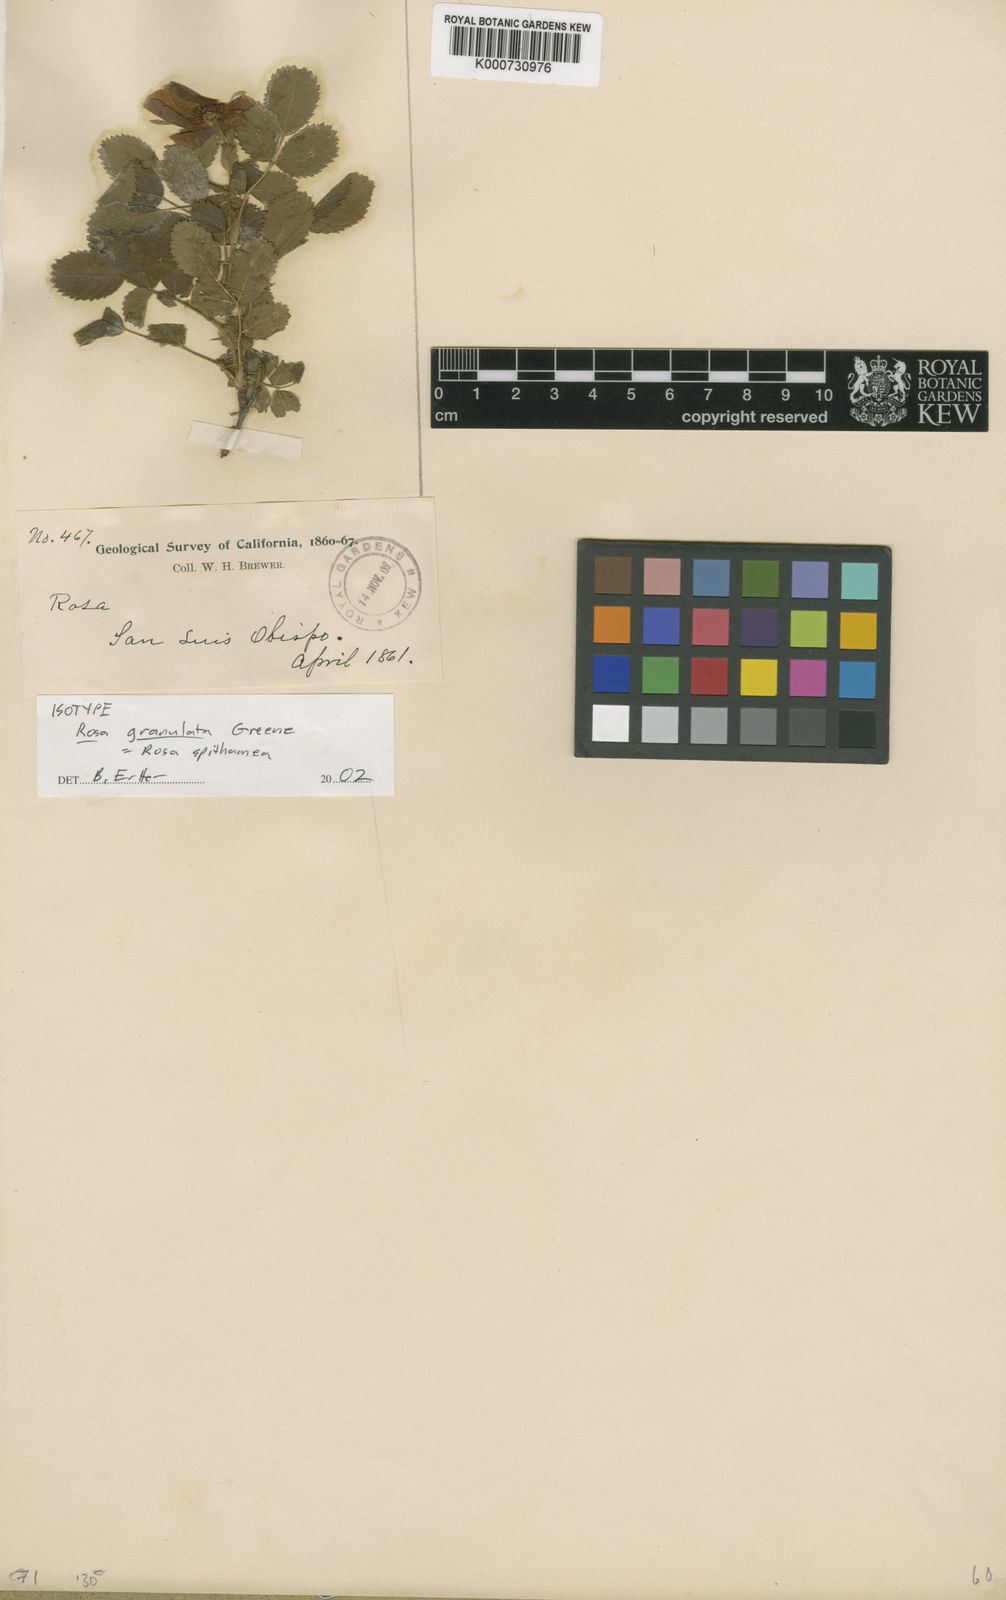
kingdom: Plantae
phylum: Tracheophyta
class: Magnoliopsida
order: Rosales
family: Rosaceae
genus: Rosa
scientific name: Rosa
